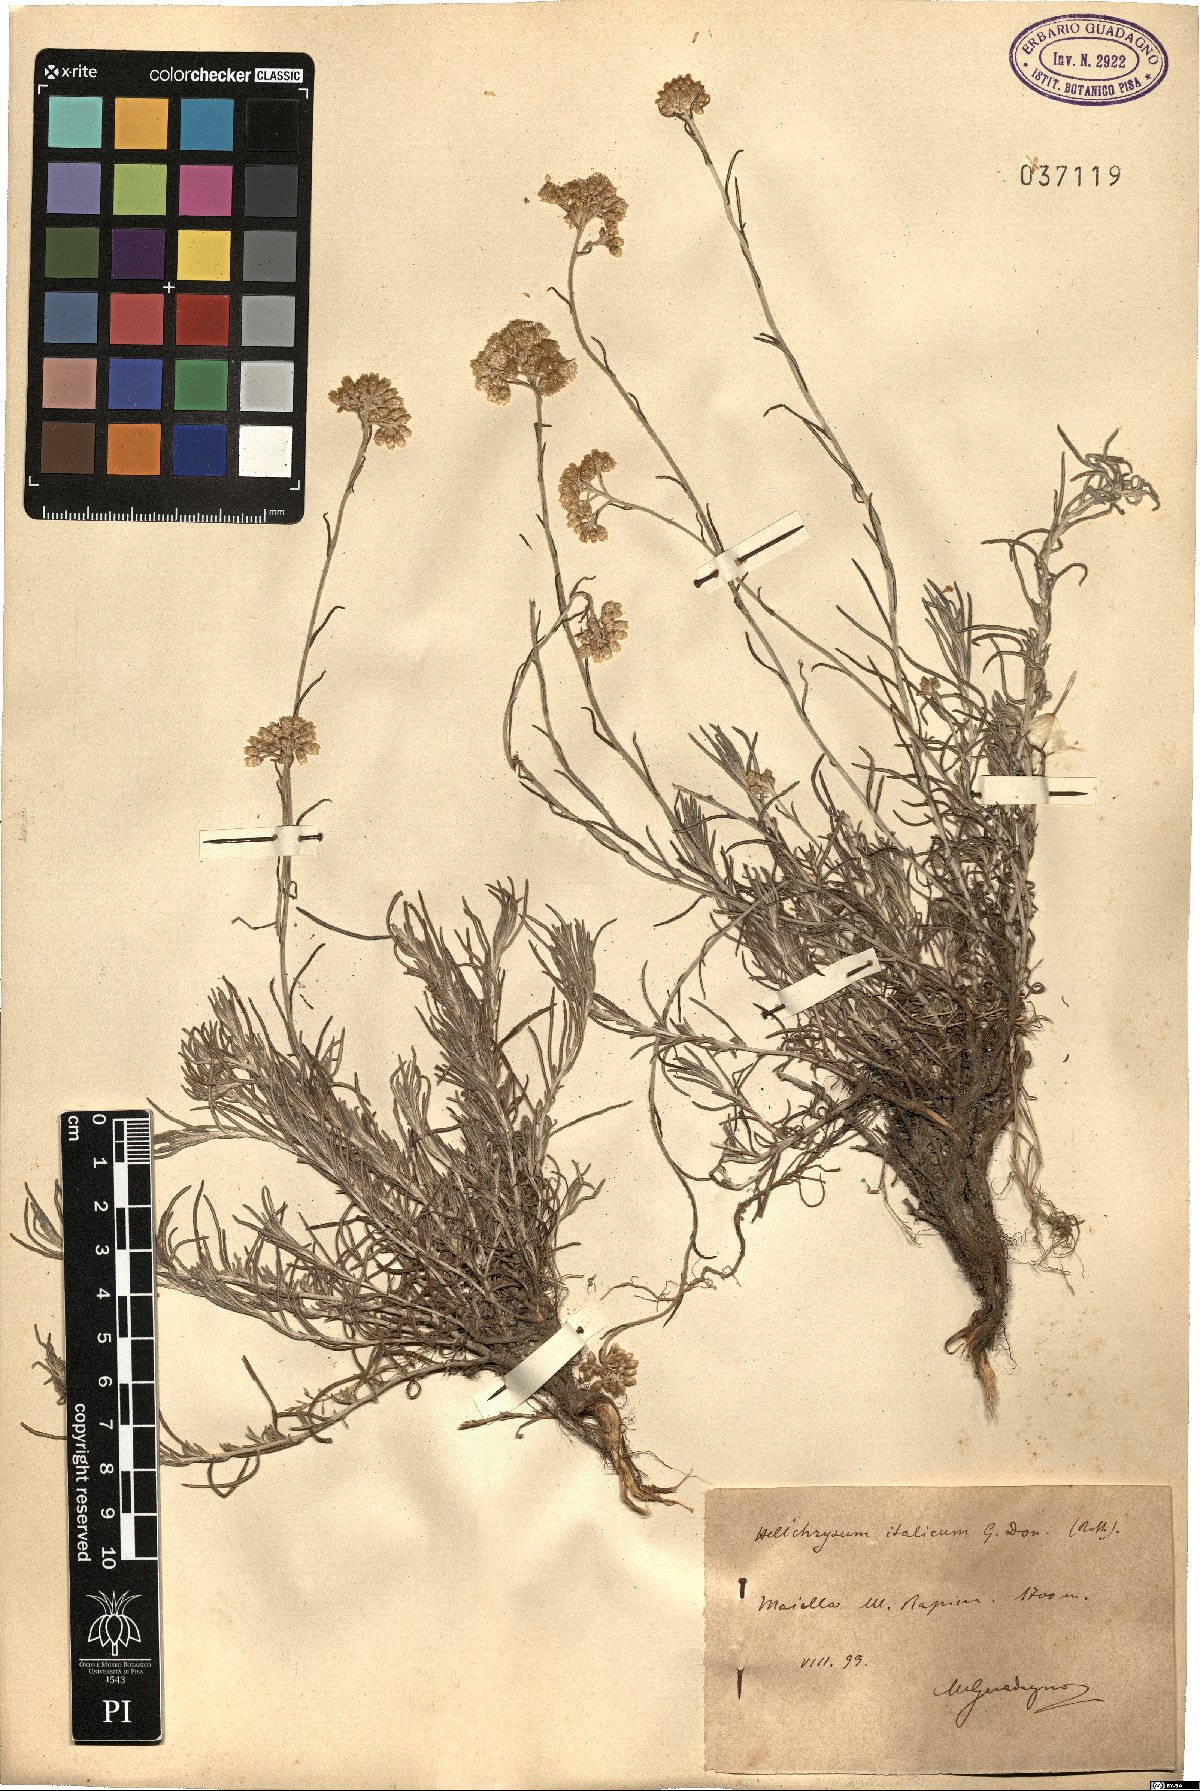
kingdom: Plantae
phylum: Tracheophyta
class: Magnoliopsida
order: Asterales
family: Asteraceae
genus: Helichrysum
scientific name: Helichrysum italicum
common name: Curryplant
